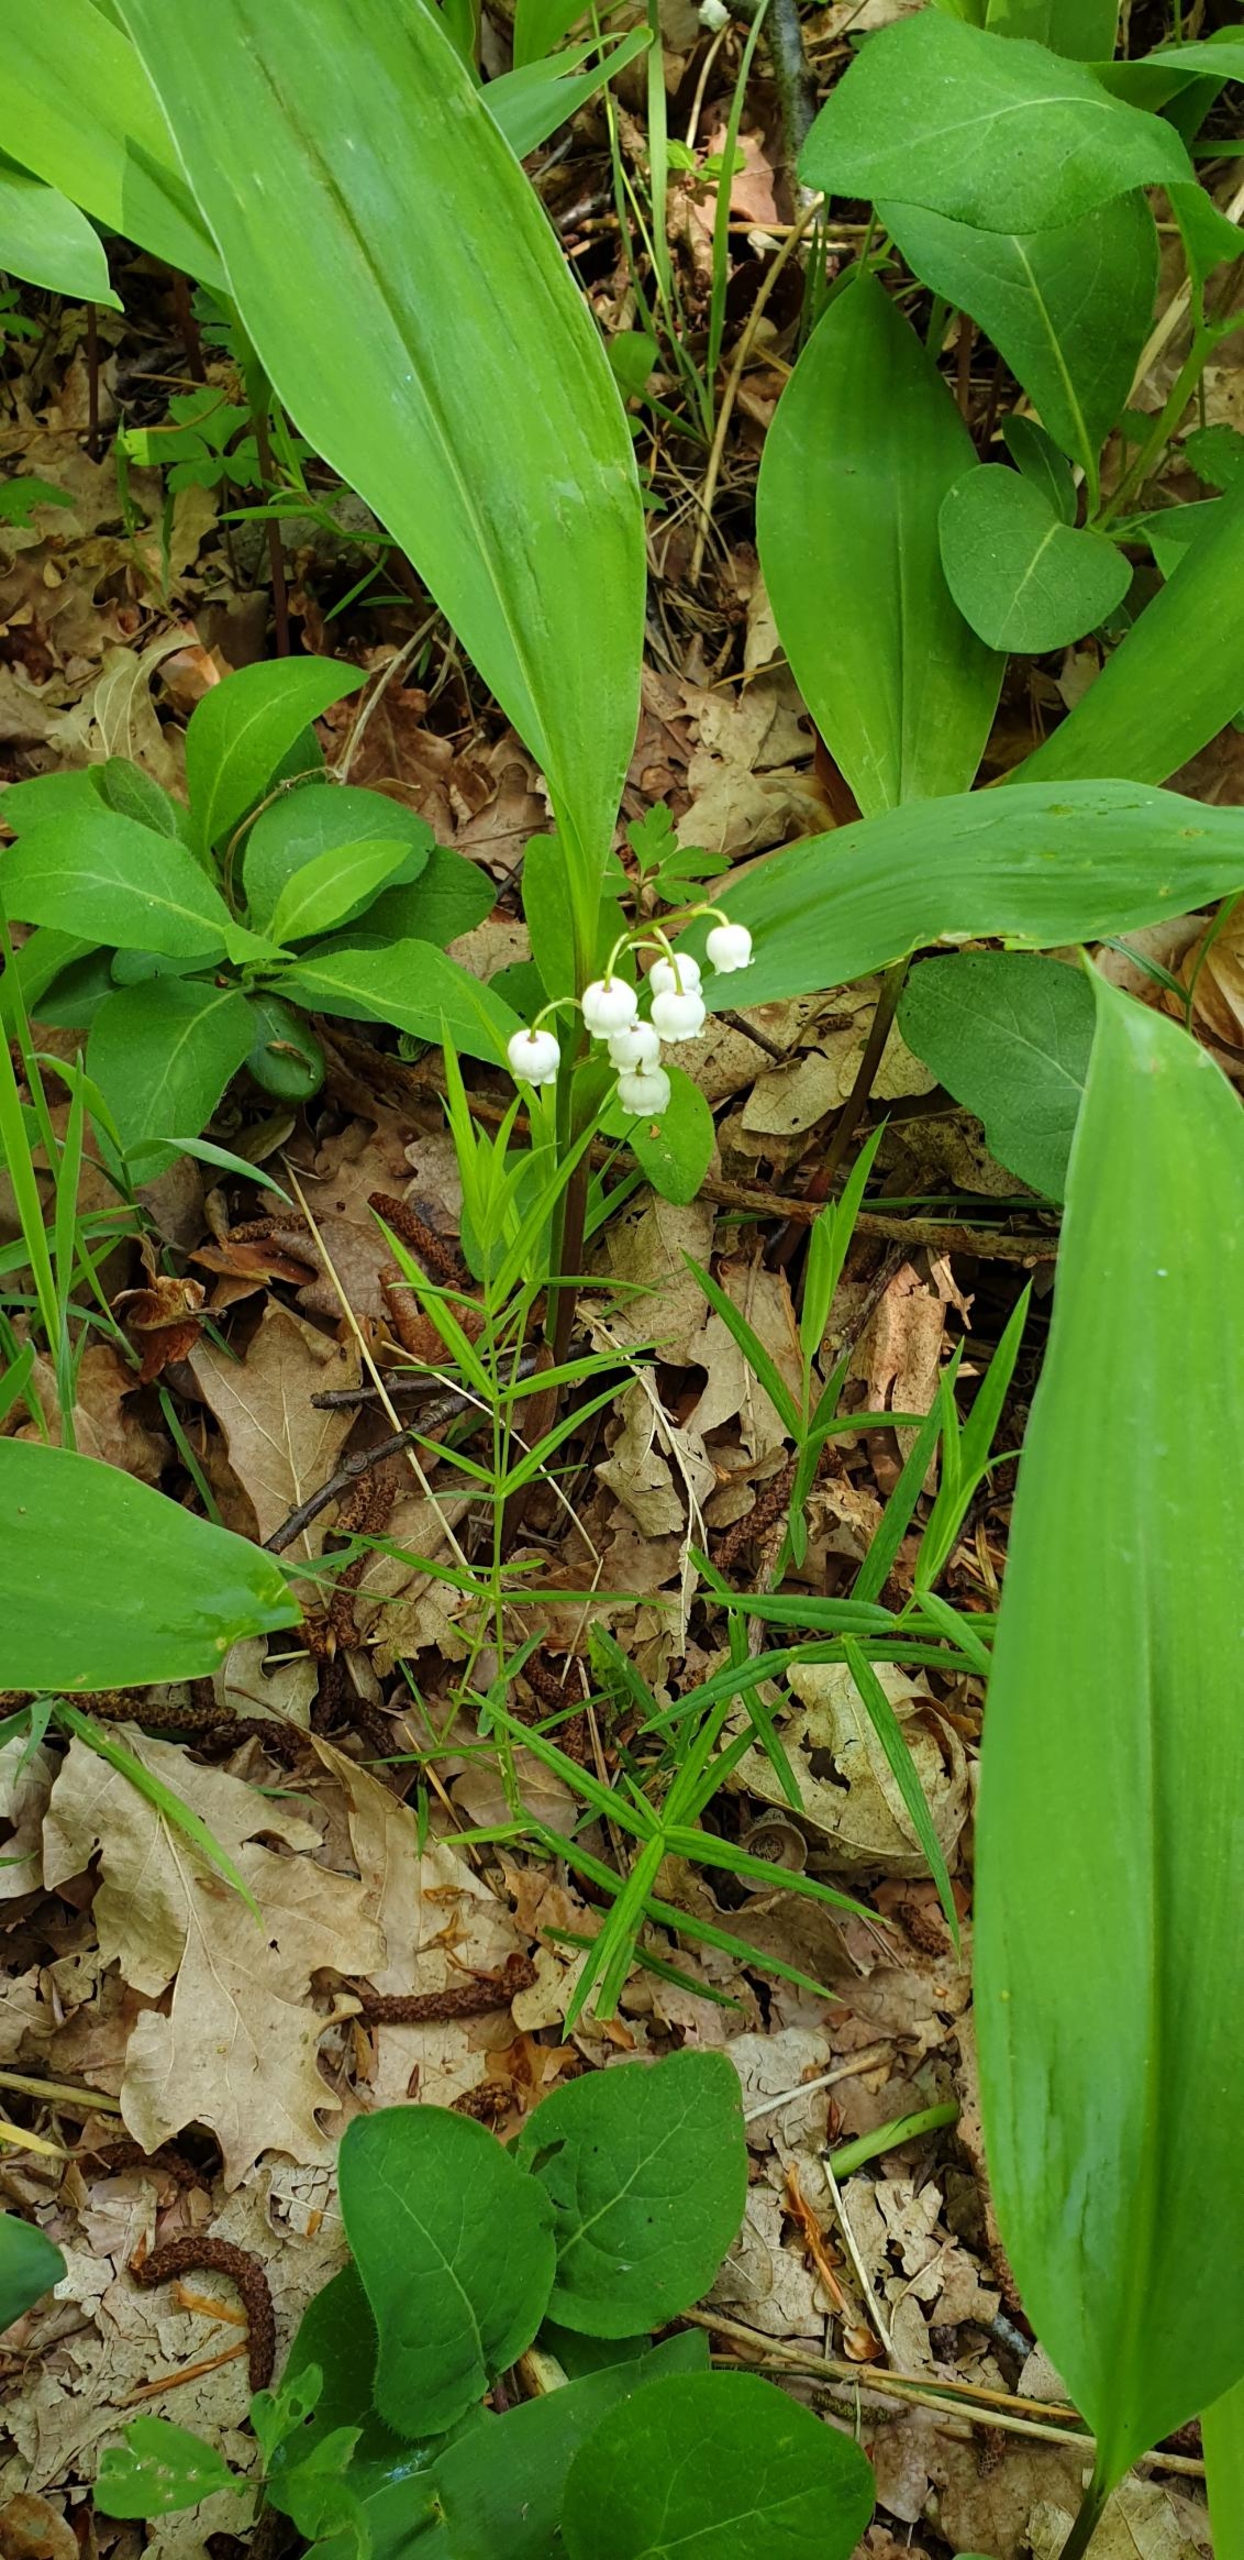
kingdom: Plantae
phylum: Tracheophyta
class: Liliopsida
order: Asparagales
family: Asparagaceae
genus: Convallaria
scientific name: Convallaria majalis
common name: Liljekonval
